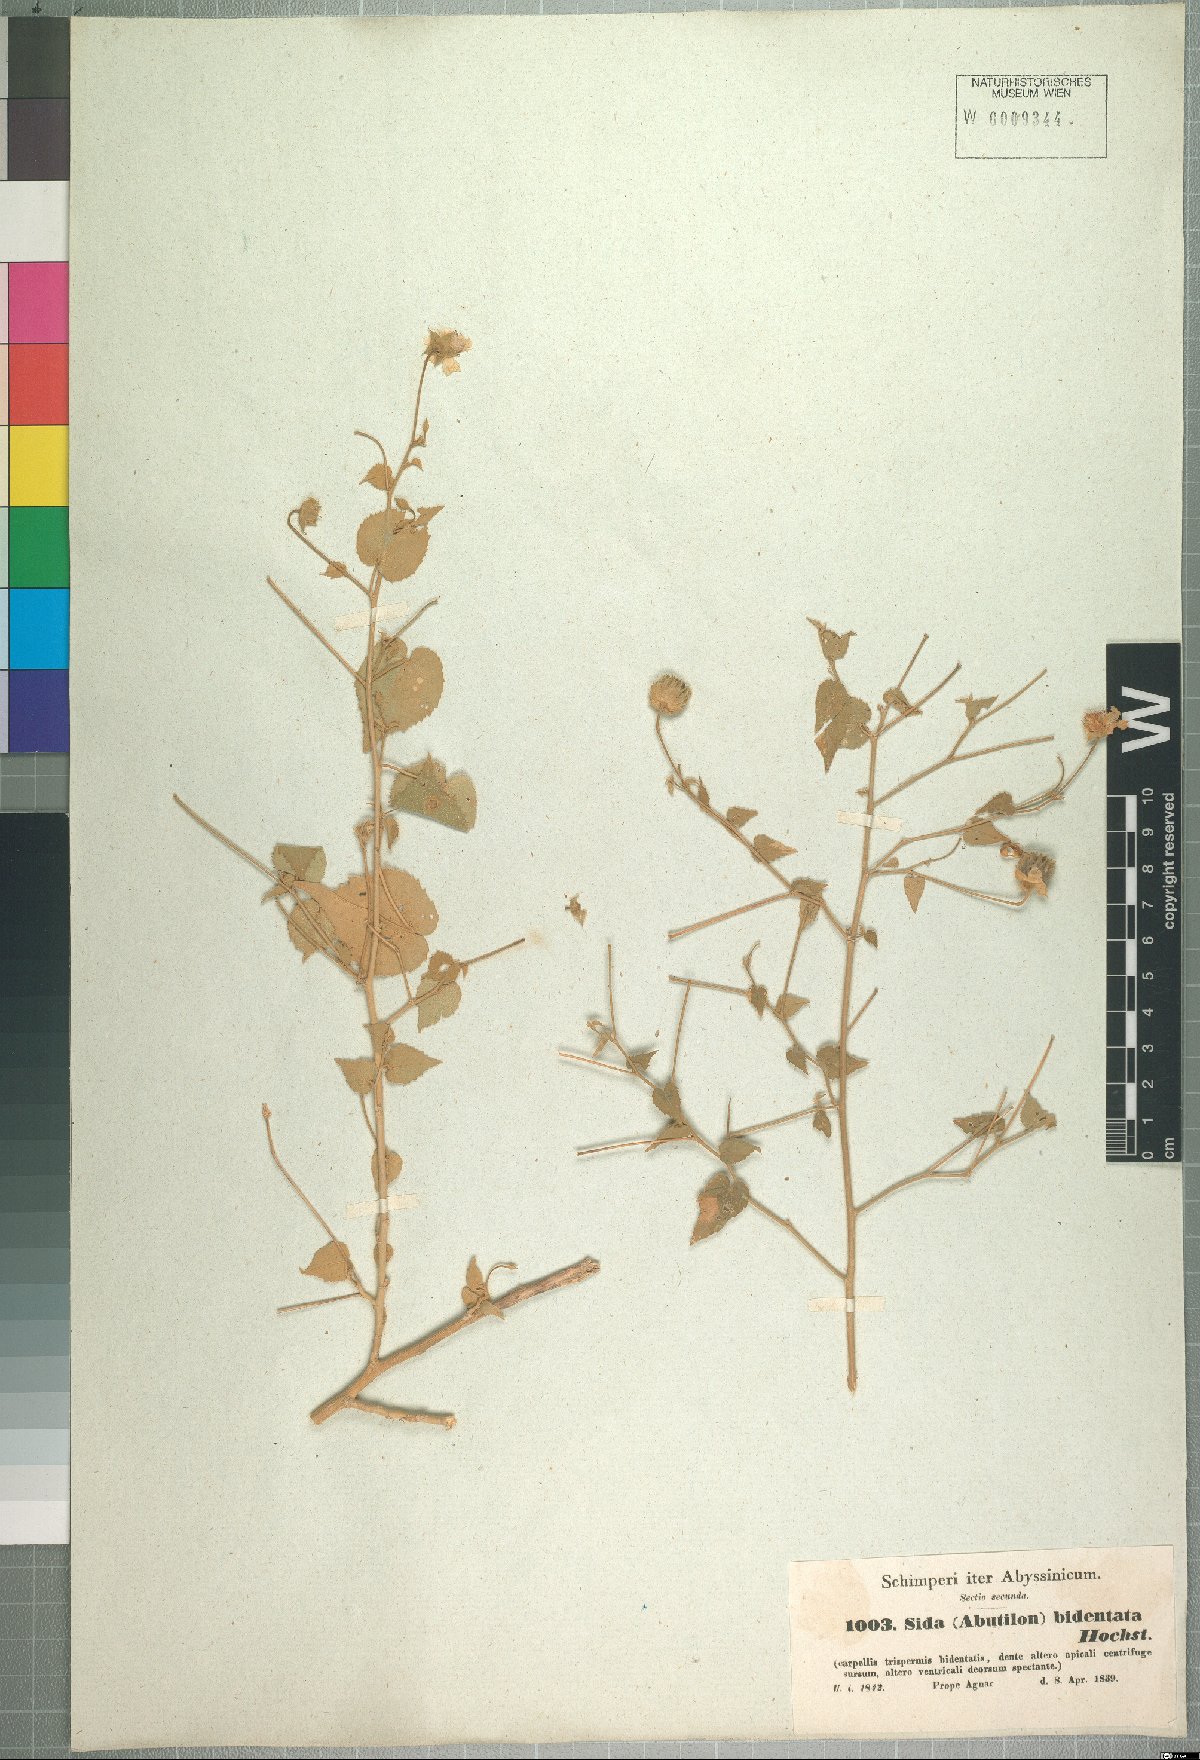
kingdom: Plantae
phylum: Tracheophyta
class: Magnoliopsida
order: Malvales
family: Malvaceae
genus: Abutilon
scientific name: Abutilon bidentatum
